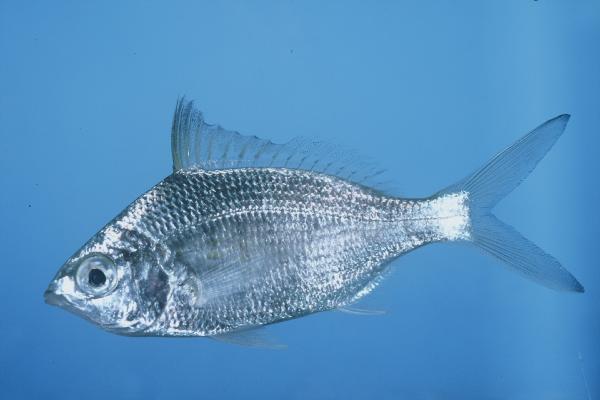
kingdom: Animalia
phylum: Chordata
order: Perciformes
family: Gerreidae
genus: Gerres
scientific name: Gerres longirostris
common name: Strongspine silver-biddy
